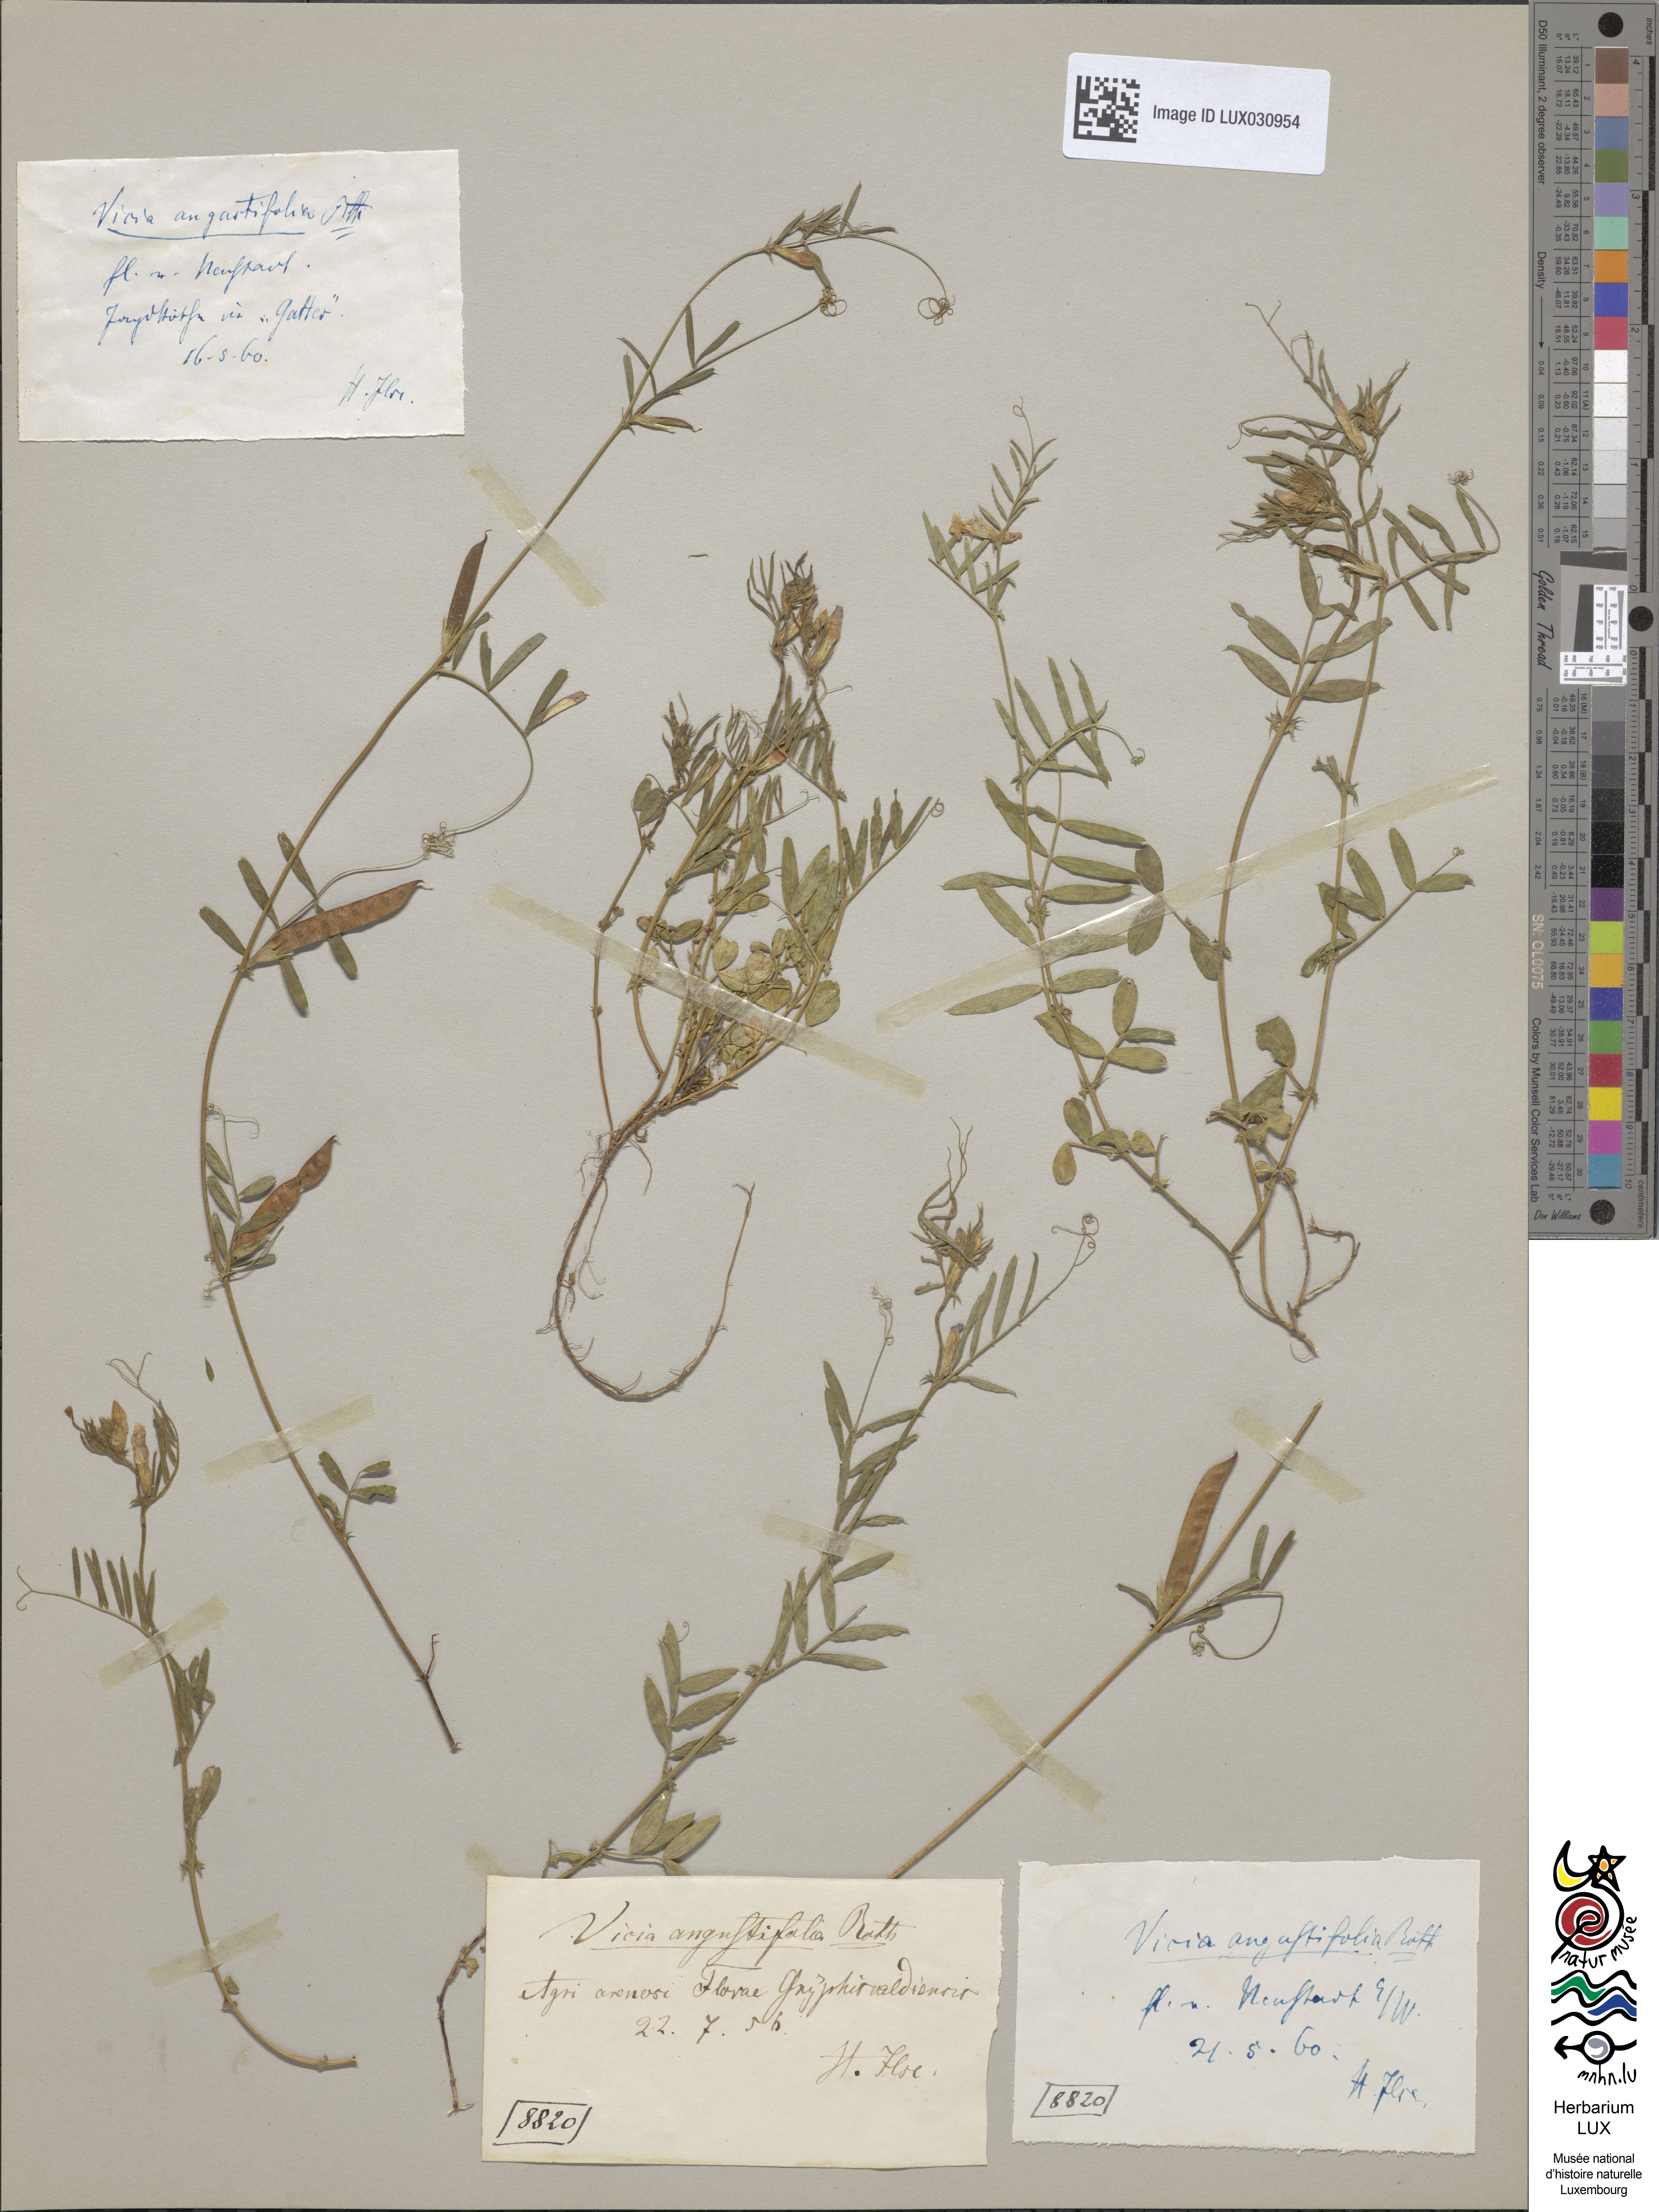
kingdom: Plantae
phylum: Tracheophyta
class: Magnoliopsida
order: Fabales
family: Fabaceae
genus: Vicia
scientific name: Vicia sativa
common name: Garden vetch
